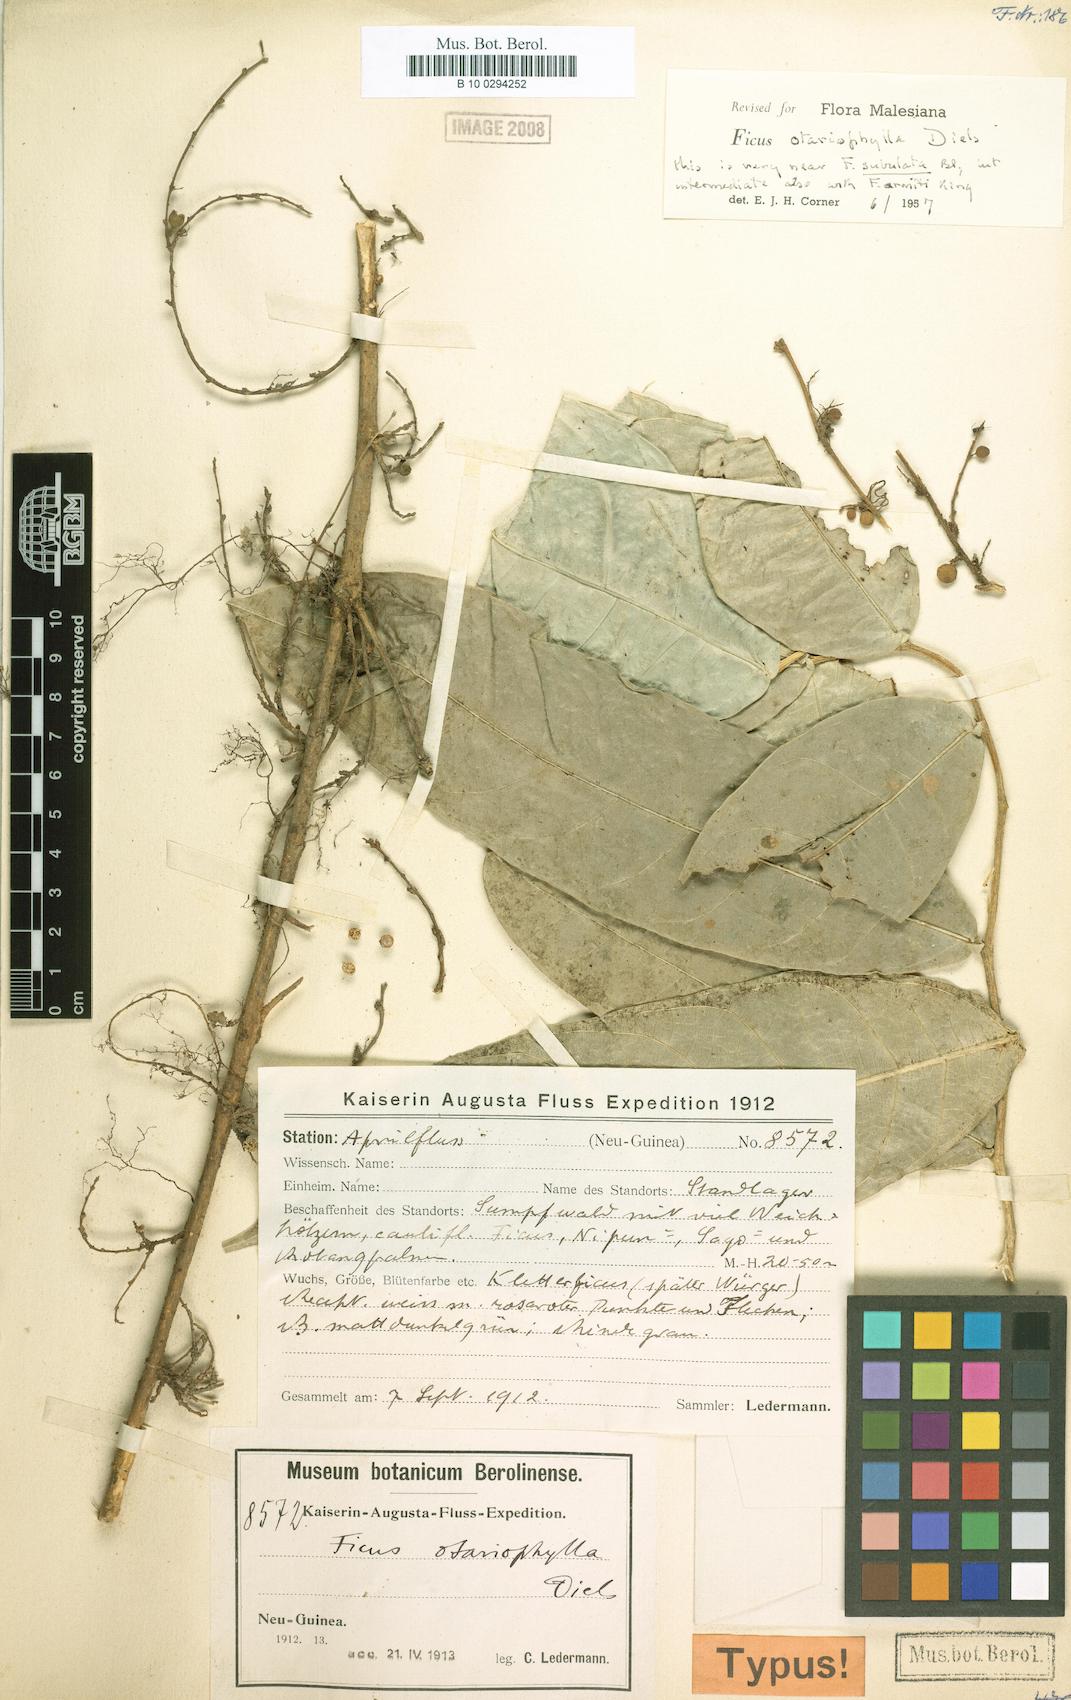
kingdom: Plantae
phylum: Tracheophyta
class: Magnoliopsida
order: Rosales
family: Moraceae
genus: Ficus
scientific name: Ficus gracillima
